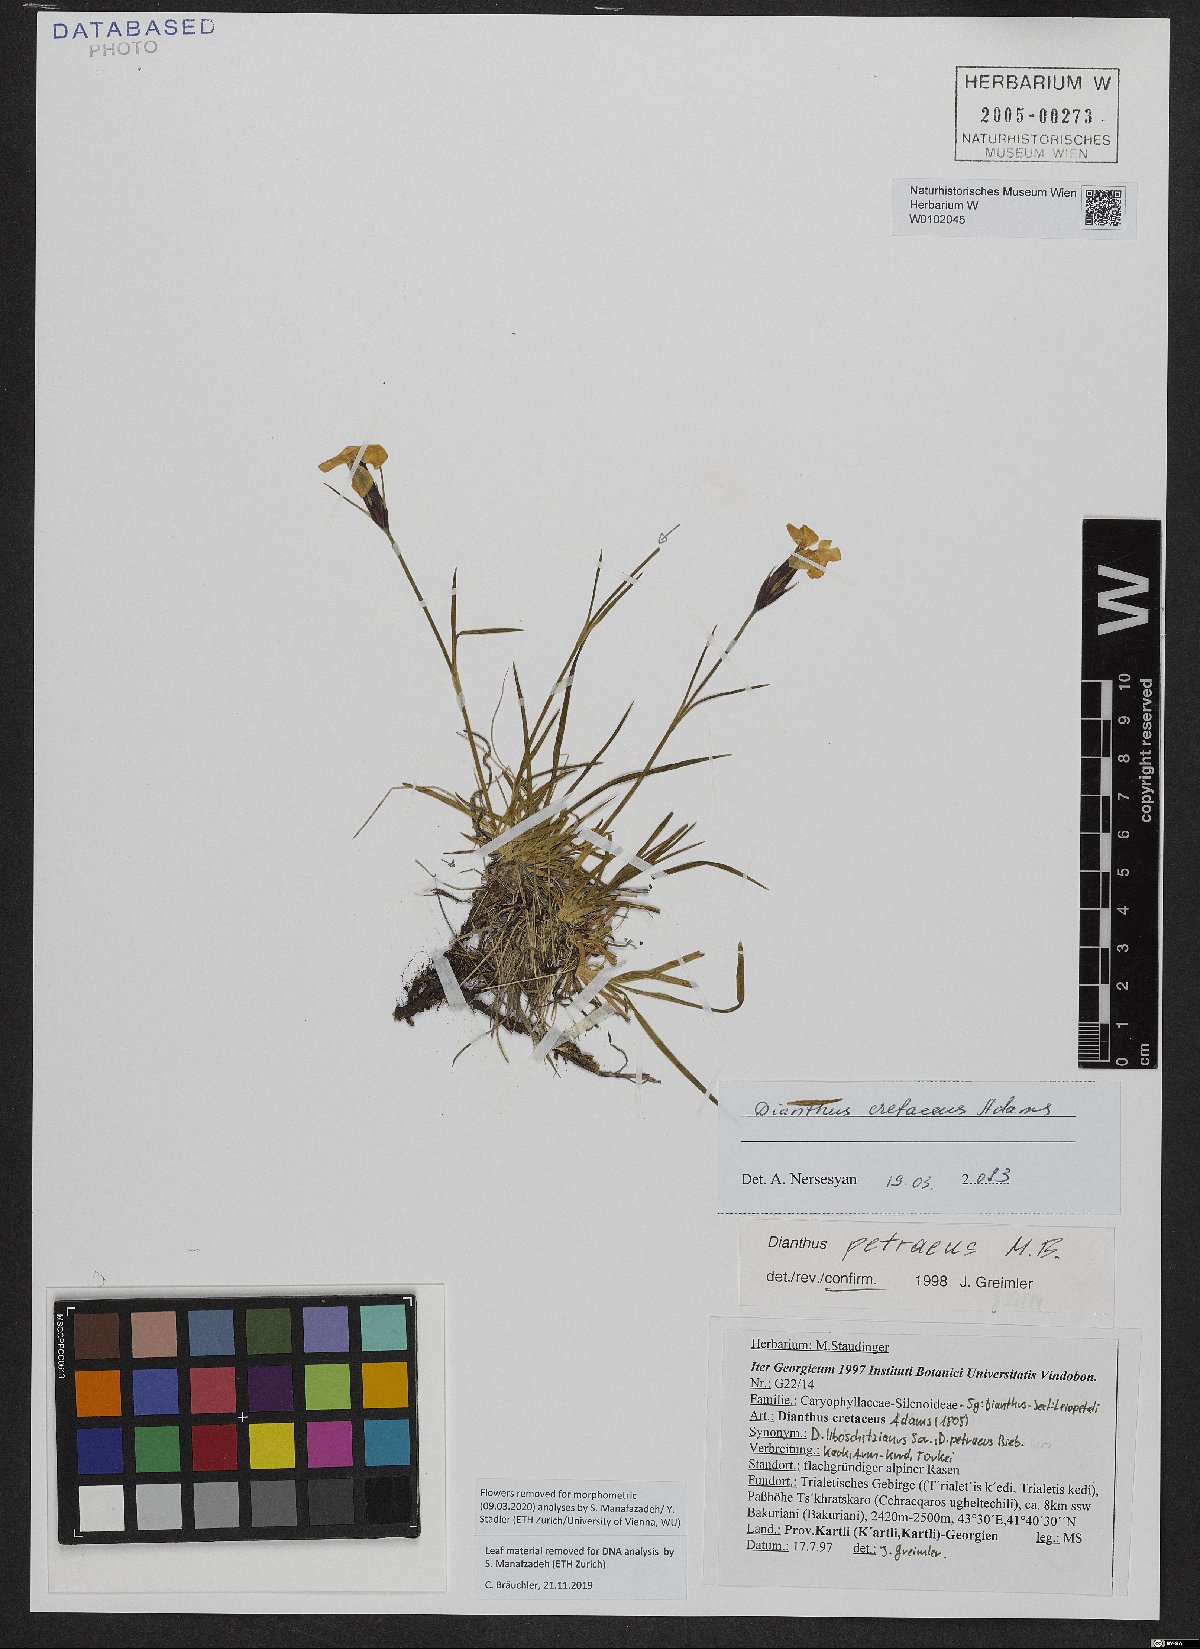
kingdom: Plantae
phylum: Tracheophyta
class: Magnoliopsida
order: Caryophyllales
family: Caryophyllaceae
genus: Dianthus
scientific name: Dianthus cretaceus
